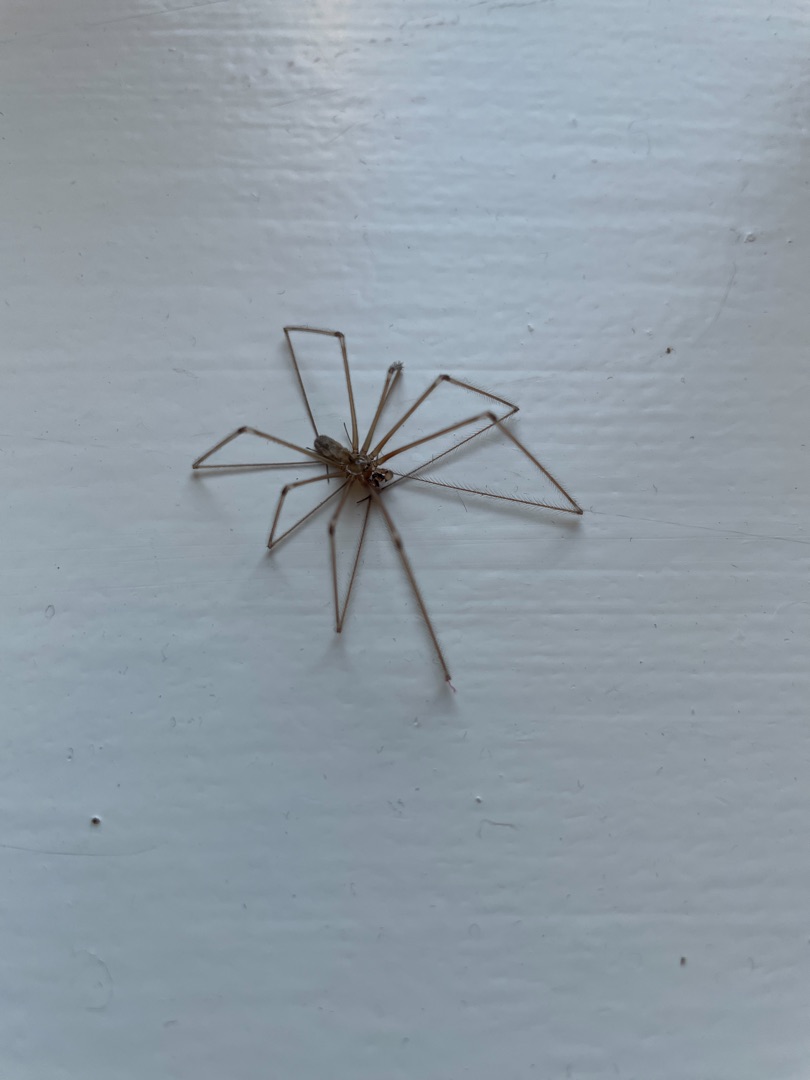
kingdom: Animalia
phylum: Arthropoda
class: Arachnida
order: Araneae
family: Pholcidae
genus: Pholcus
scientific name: Pholcus phalangioides
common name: Mejeredderkop
